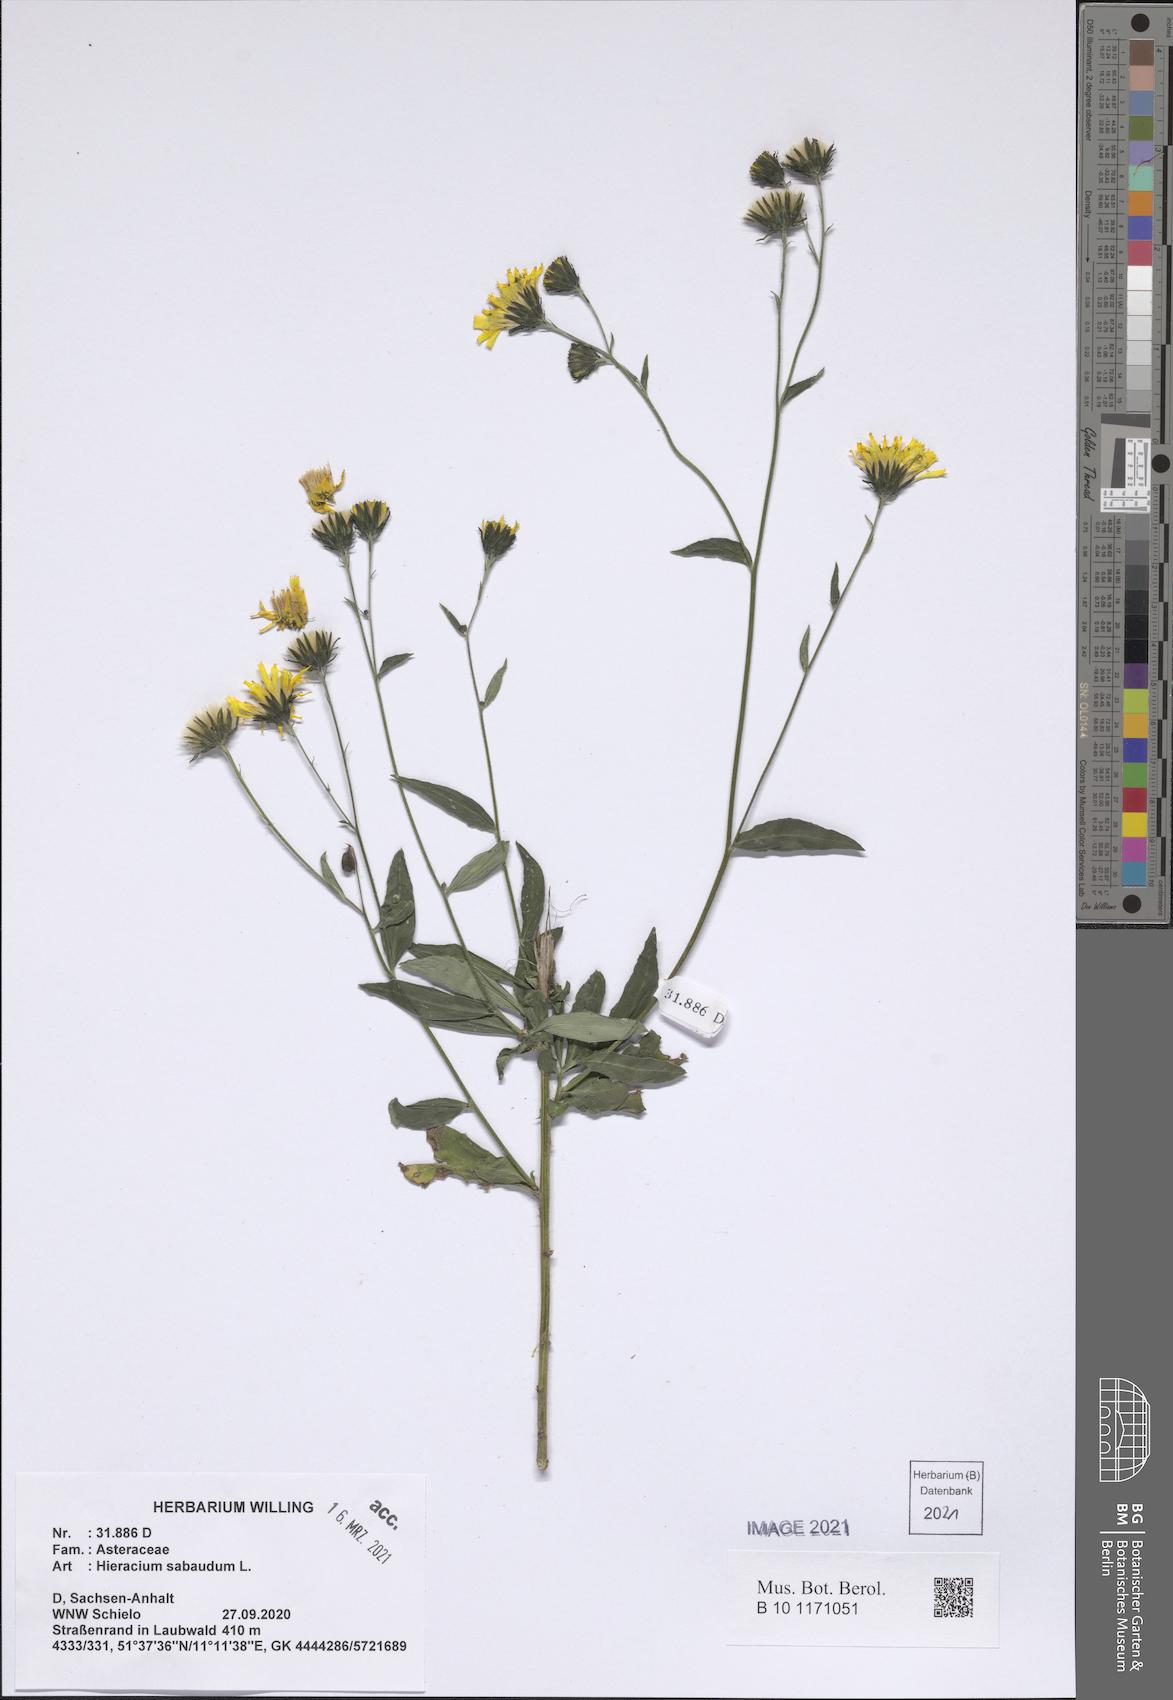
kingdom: Plantae
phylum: Tracheophyta
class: Magnoliopsida
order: Asterales
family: Asteraceae
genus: Hieracium
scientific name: Hieracium sabaudum
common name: New england hawkweed
